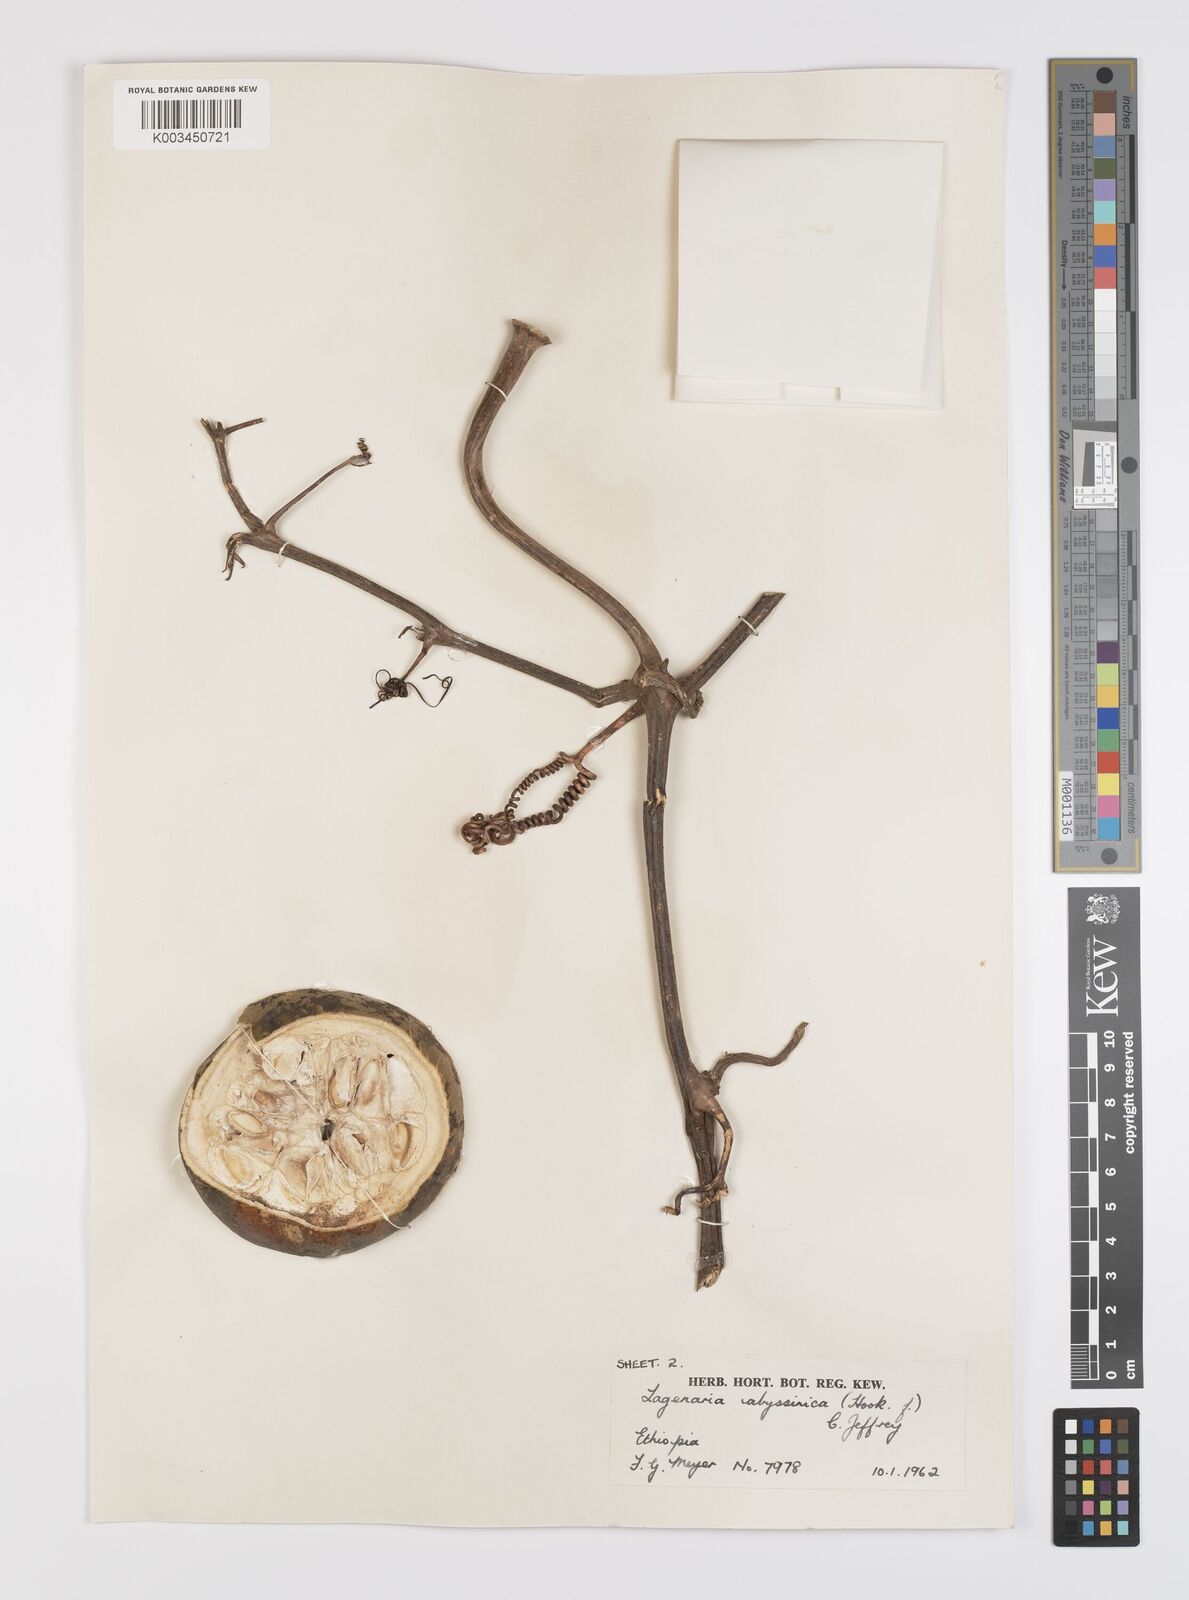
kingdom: Plantae
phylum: Tracheophyta
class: Magnoliopsida
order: Cucurbitales
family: Cucurbitaceae
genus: Lagenaria
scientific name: Lagenaria abyssinica
